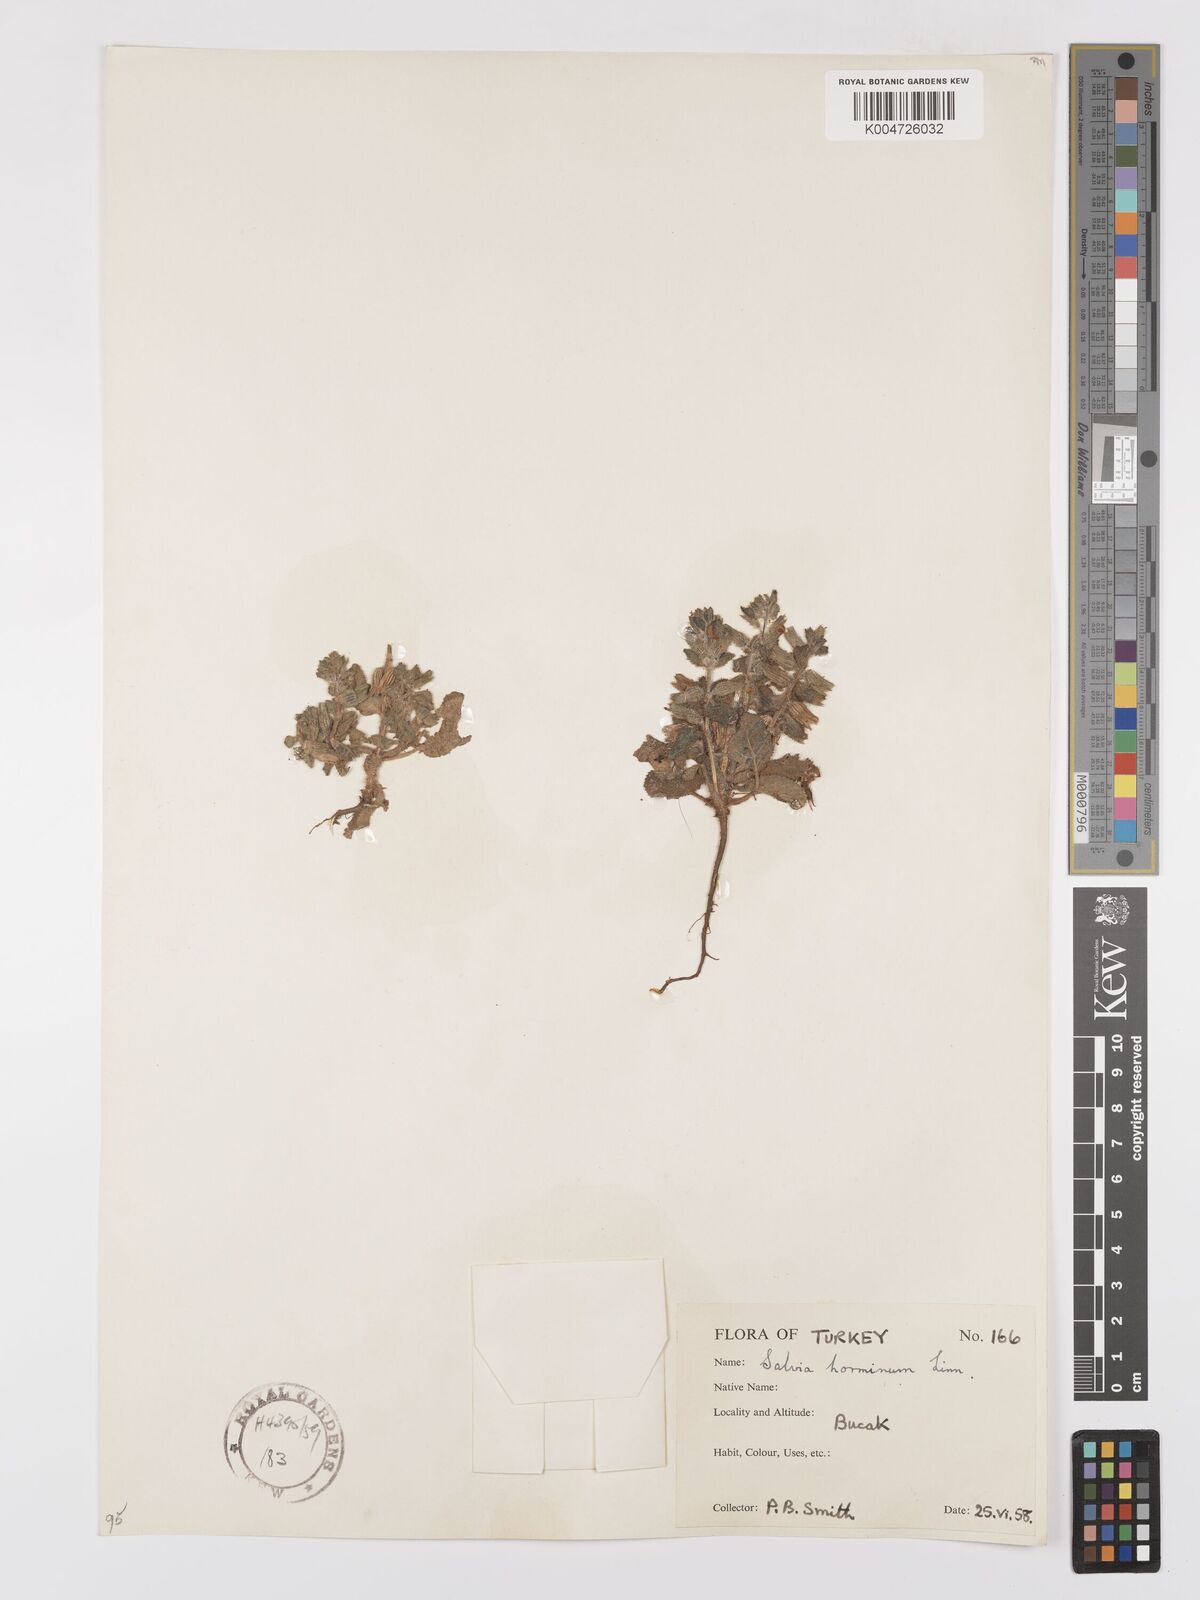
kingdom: Plantae
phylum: Tracheophyta
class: Magnoliopsida
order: Lamiales
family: Lamiaceae
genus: Salvia
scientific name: Salvia viridis
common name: Annual clary
